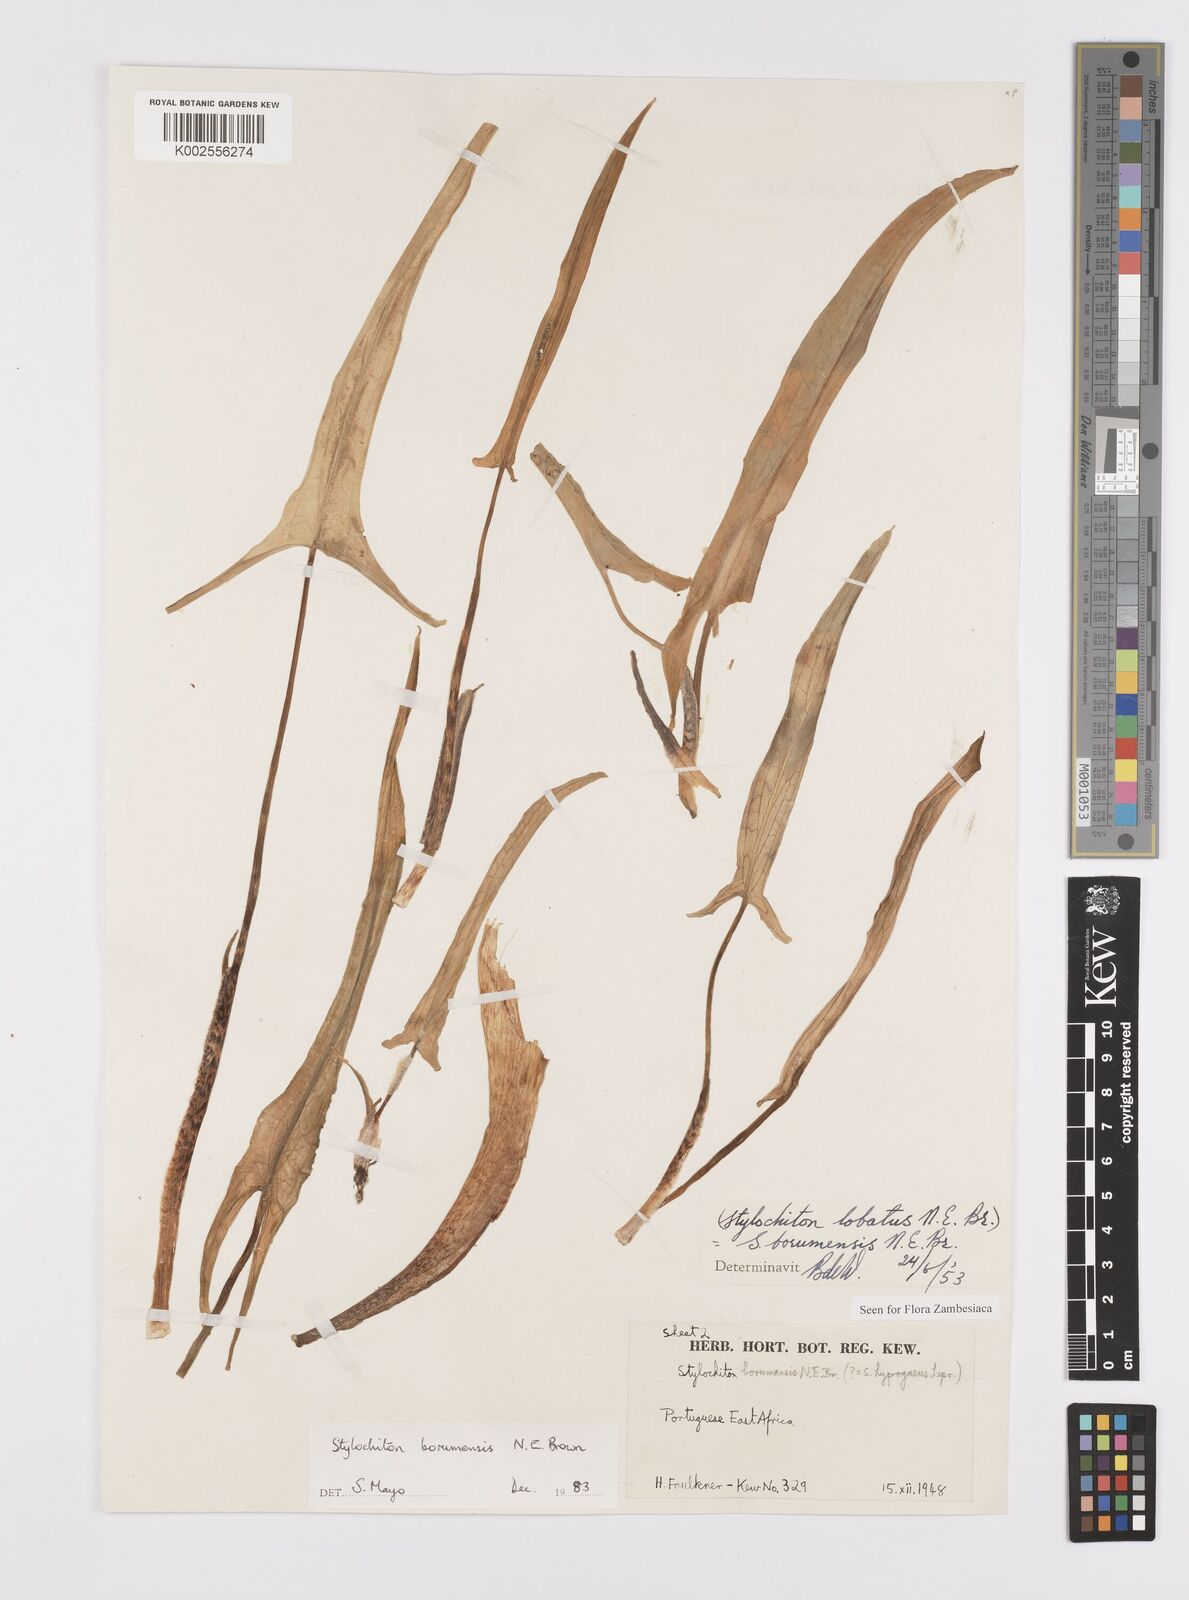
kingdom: Plantae
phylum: Tracheophyta
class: Liliopsida
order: Alismatales
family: Araceae
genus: Stylochaeton
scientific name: Stylochaeton borumense
